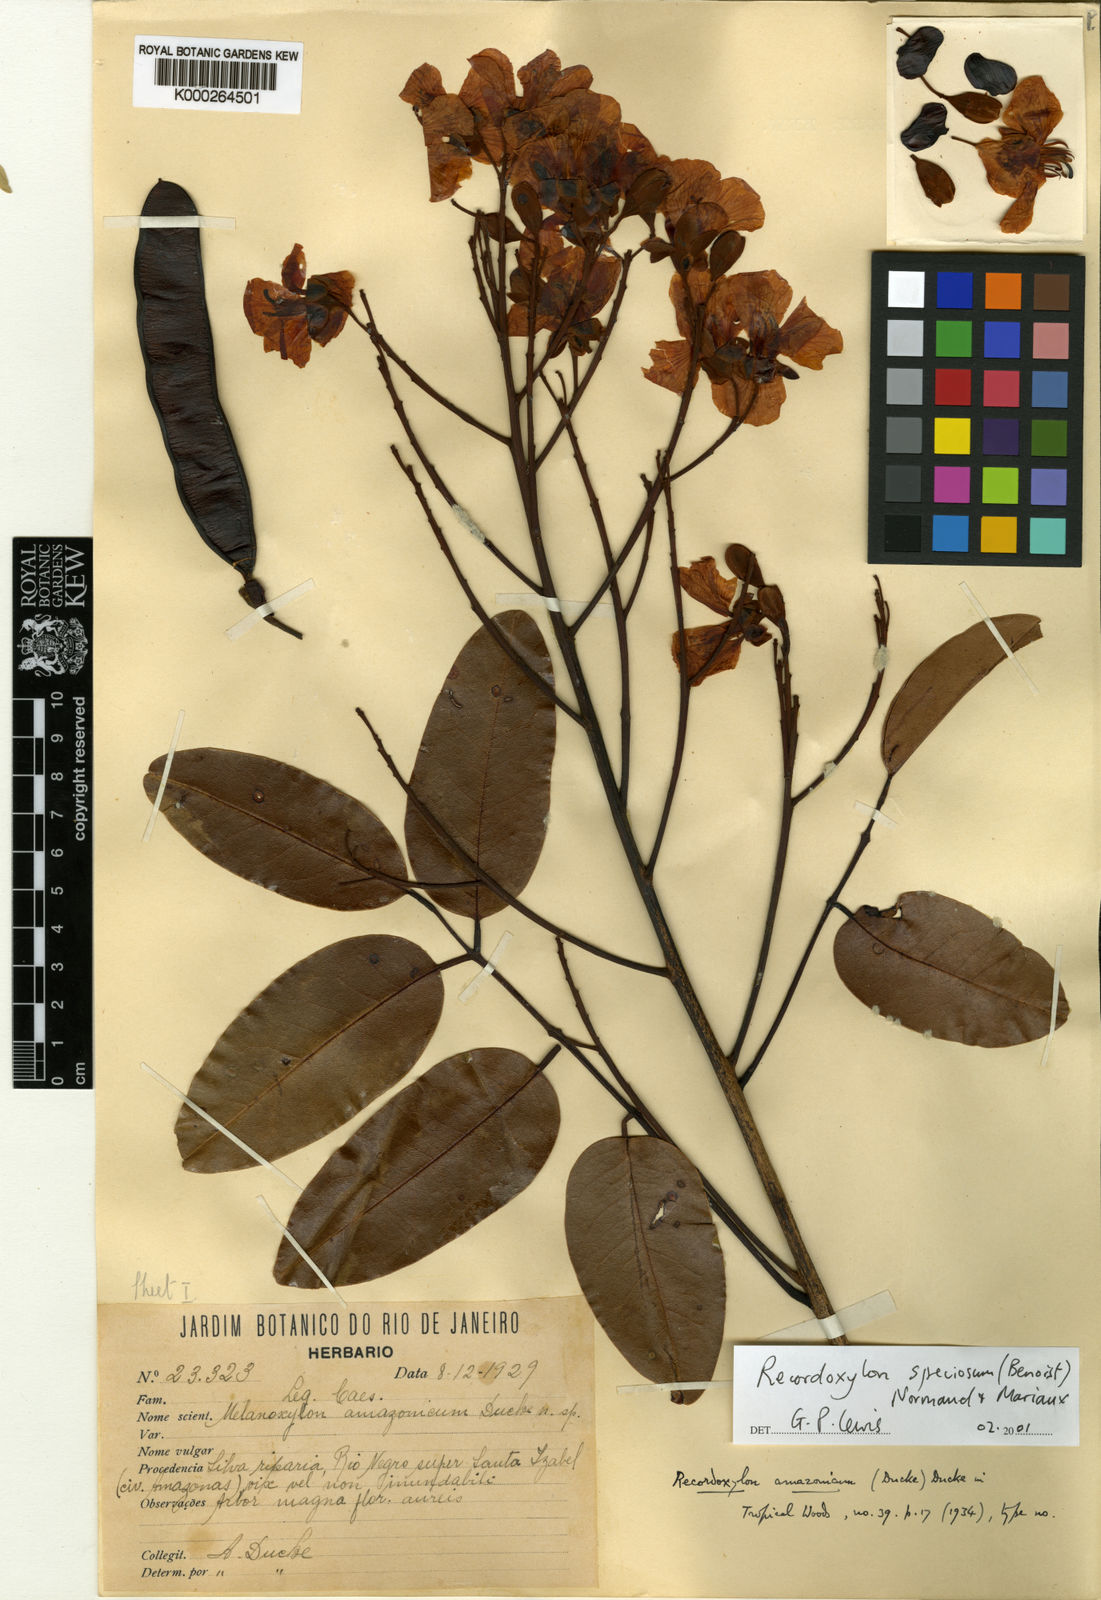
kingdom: Plantae
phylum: Tracheophyta
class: Magnoliopsida
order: Fabales
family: Fabaceae
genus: Recordoxylon
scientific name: Recordoxylon
